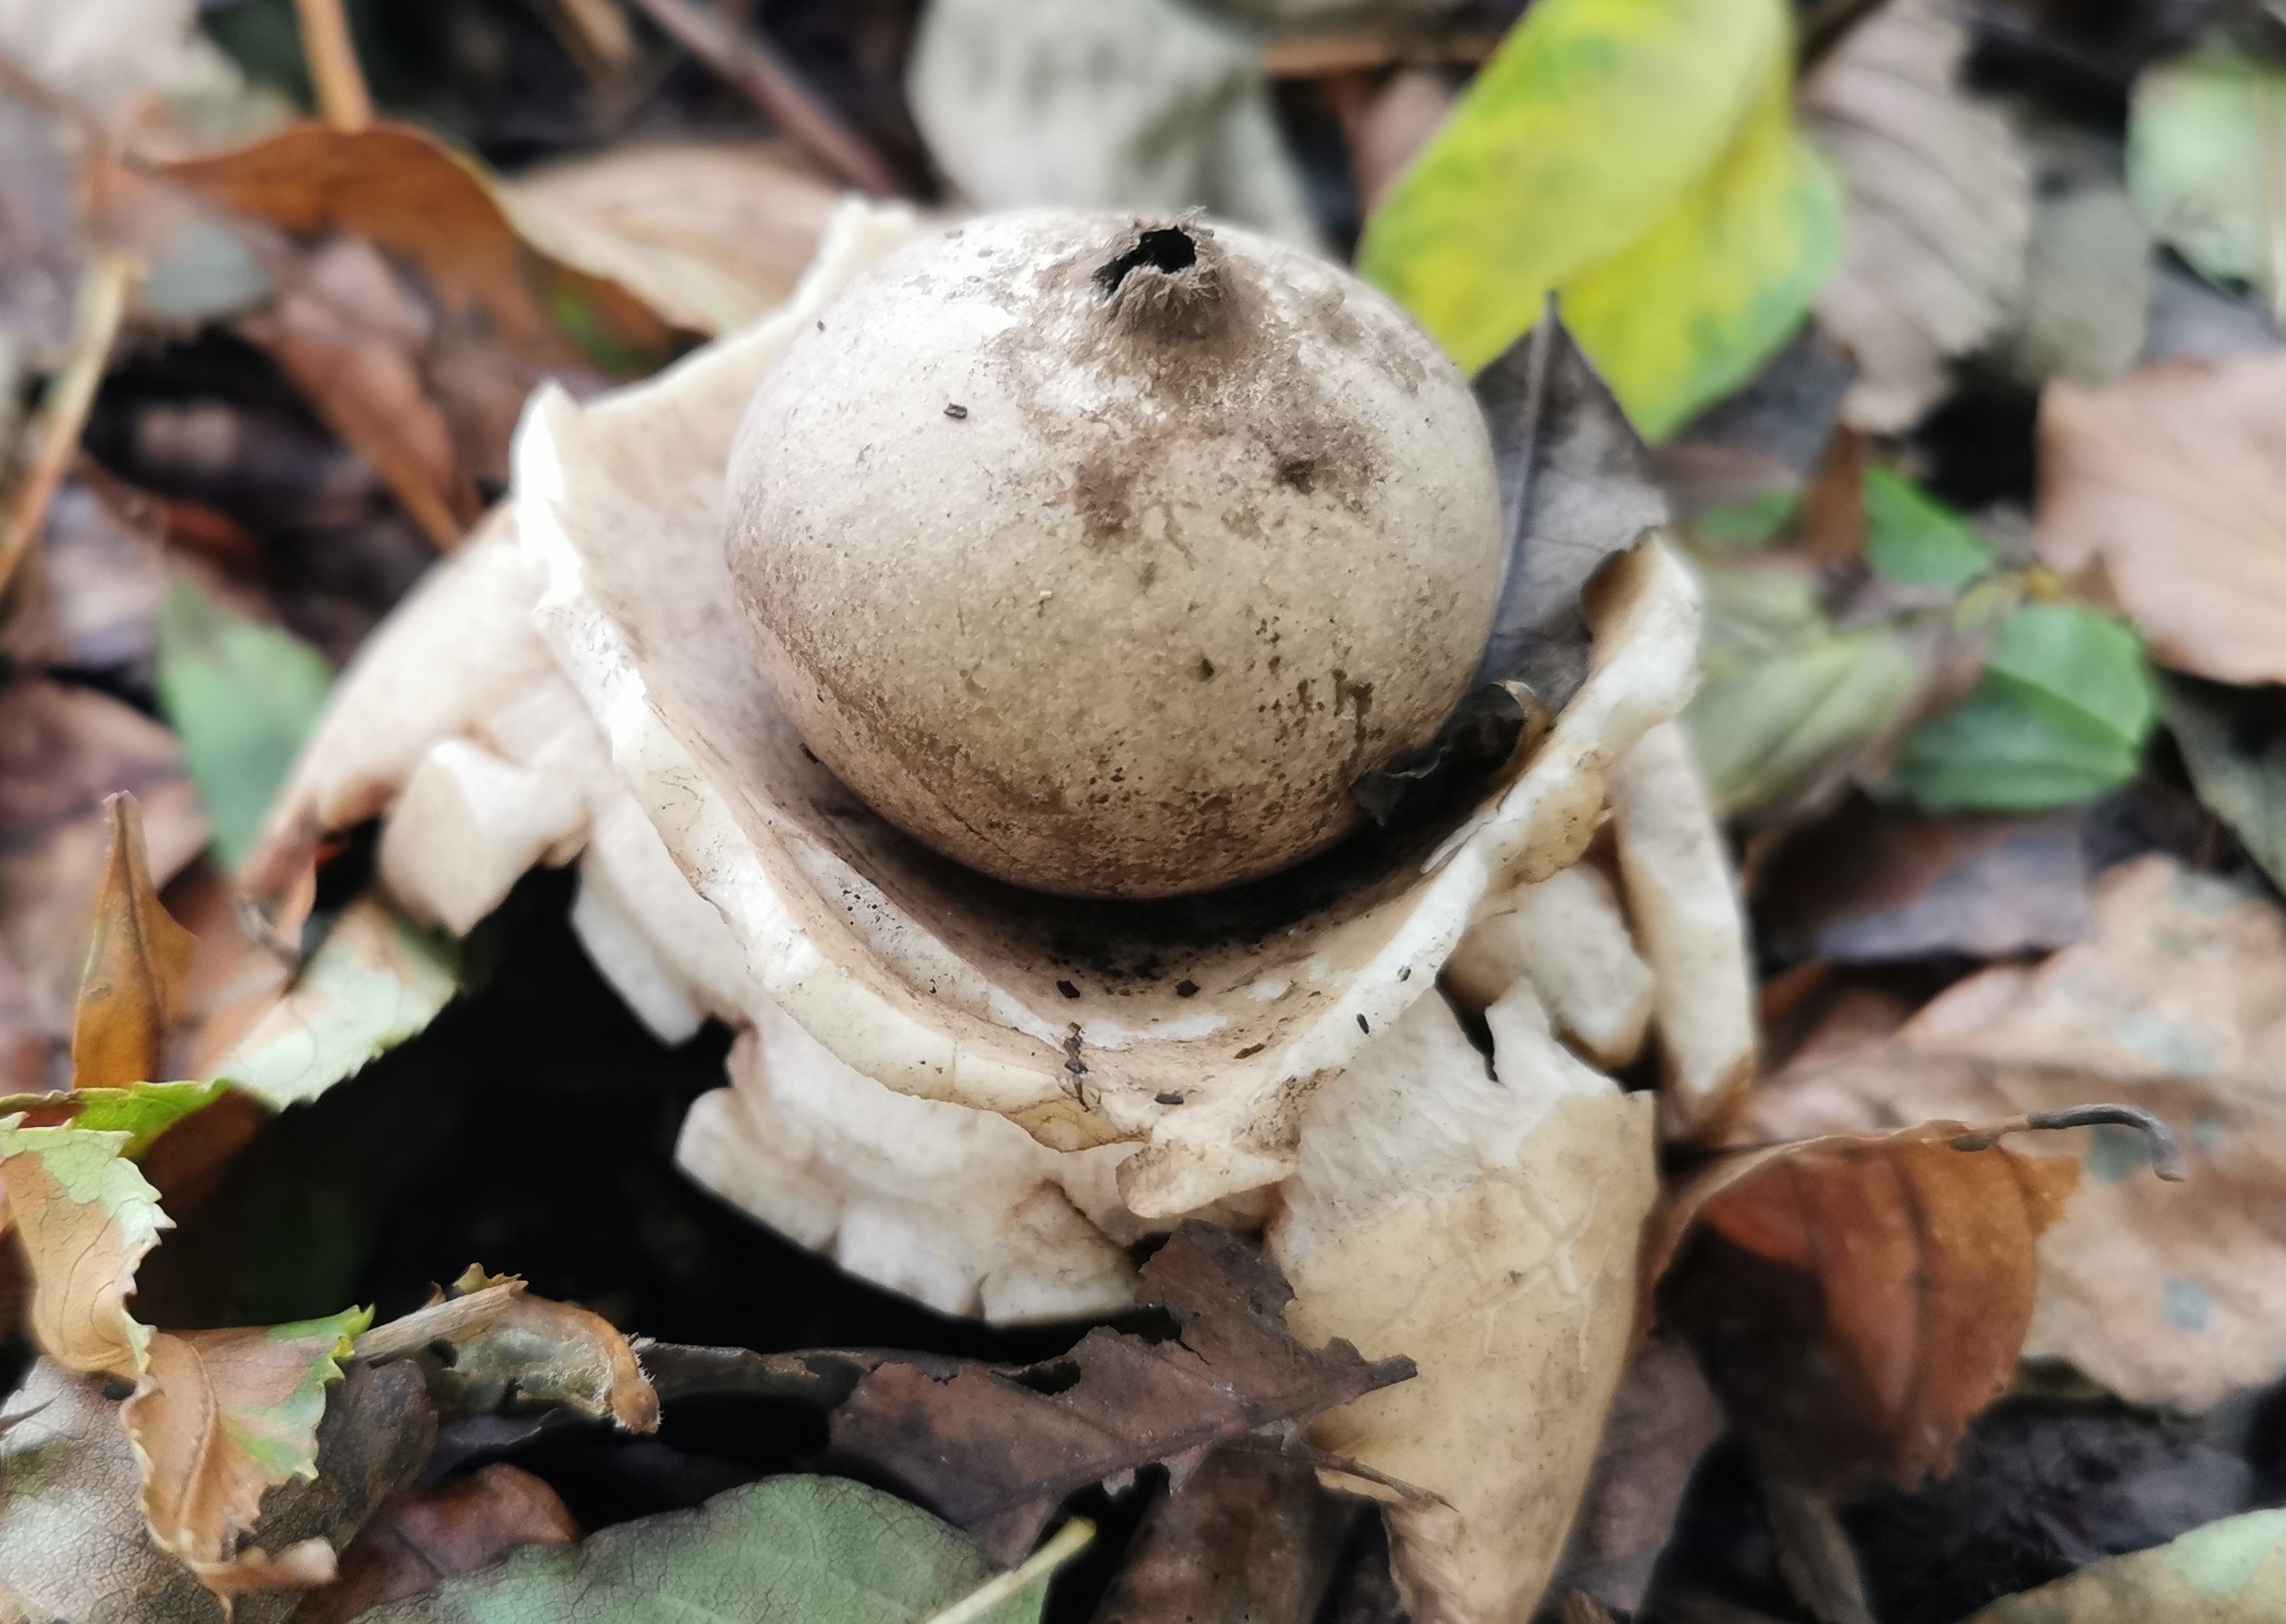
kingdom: Fungi
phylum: Basidiomycota
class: Agaricomycetes
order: Geastrales
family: Geastraceae
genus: Geastrum
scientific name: Geastrum michelianum
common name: kødet stjernebold
